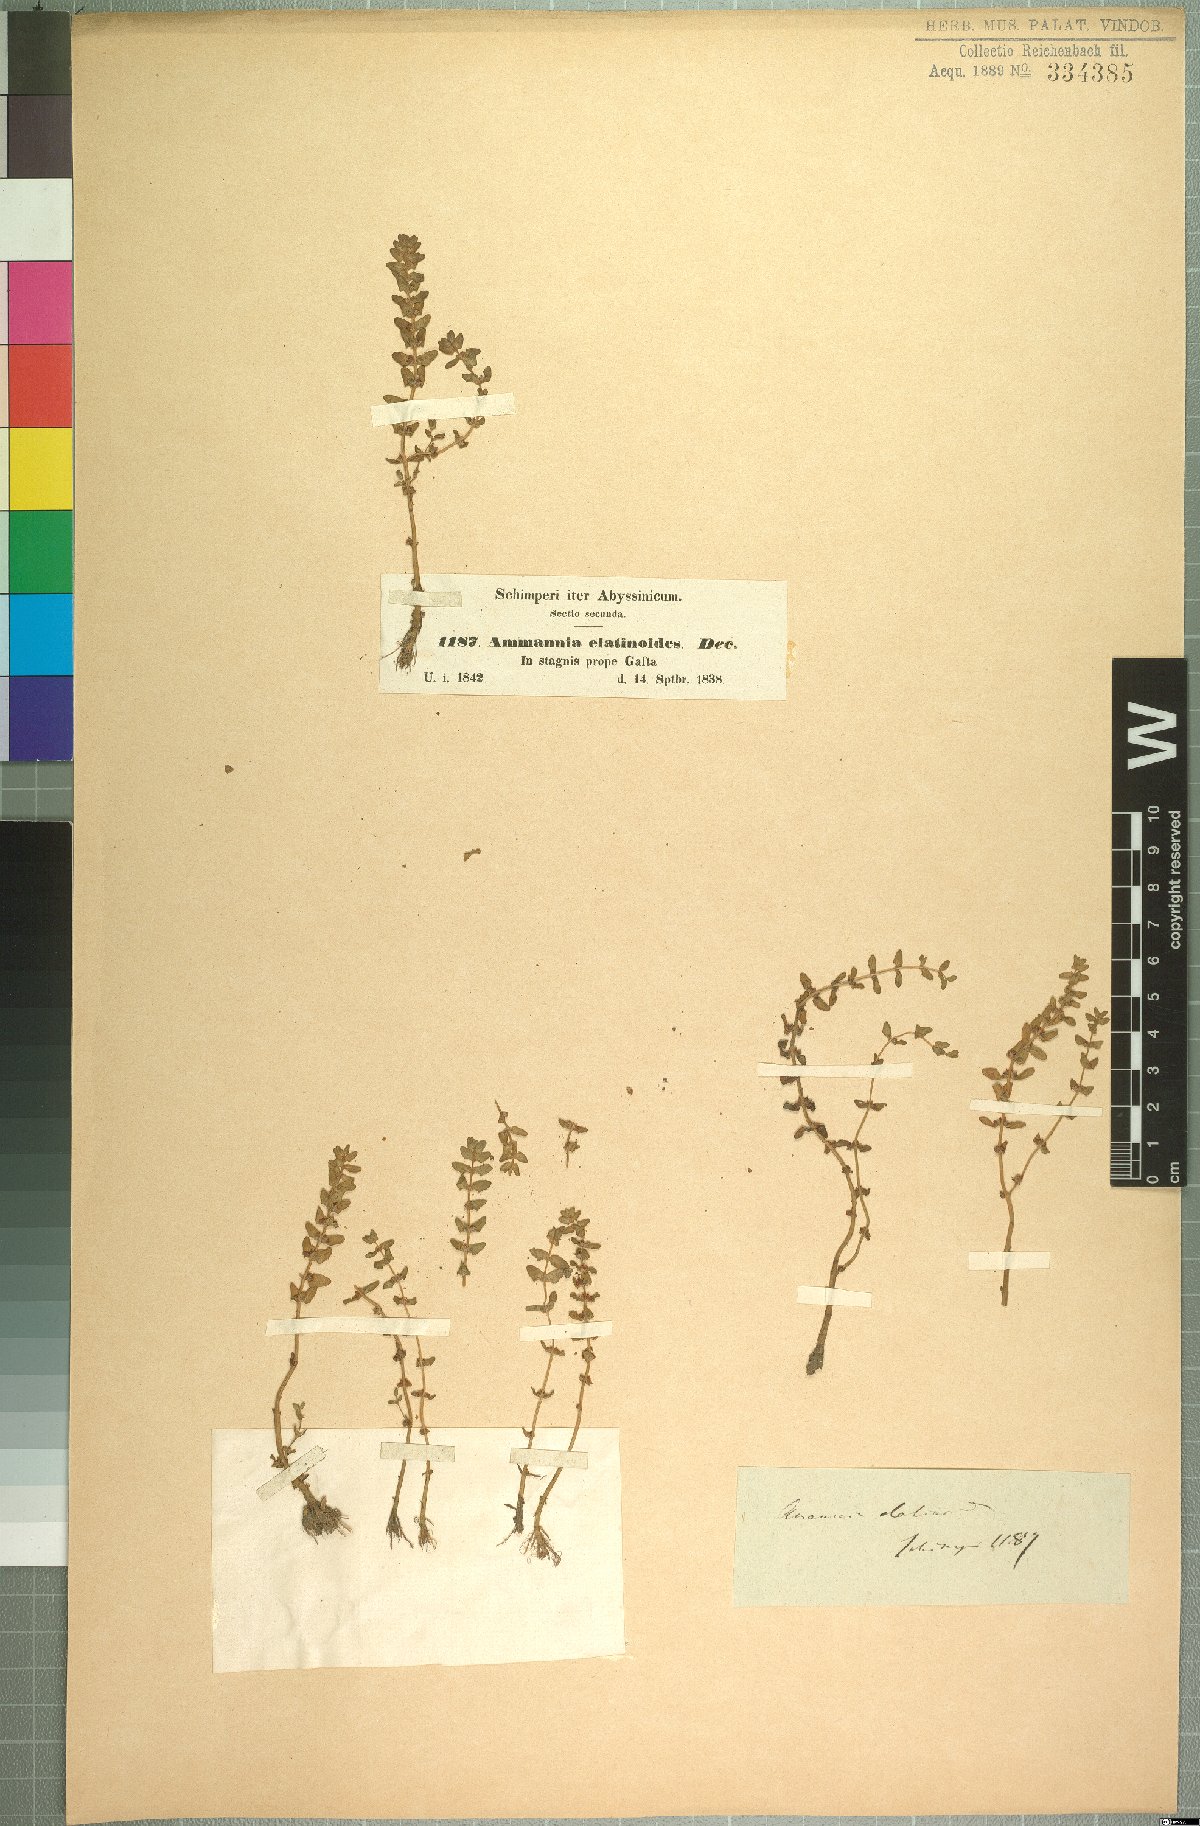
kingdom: Plantae
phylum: Tracheophyta
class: Magnoliopsida
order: Myrtales
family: Lythraceae
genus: Rotala
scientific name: Rotala stagnina
